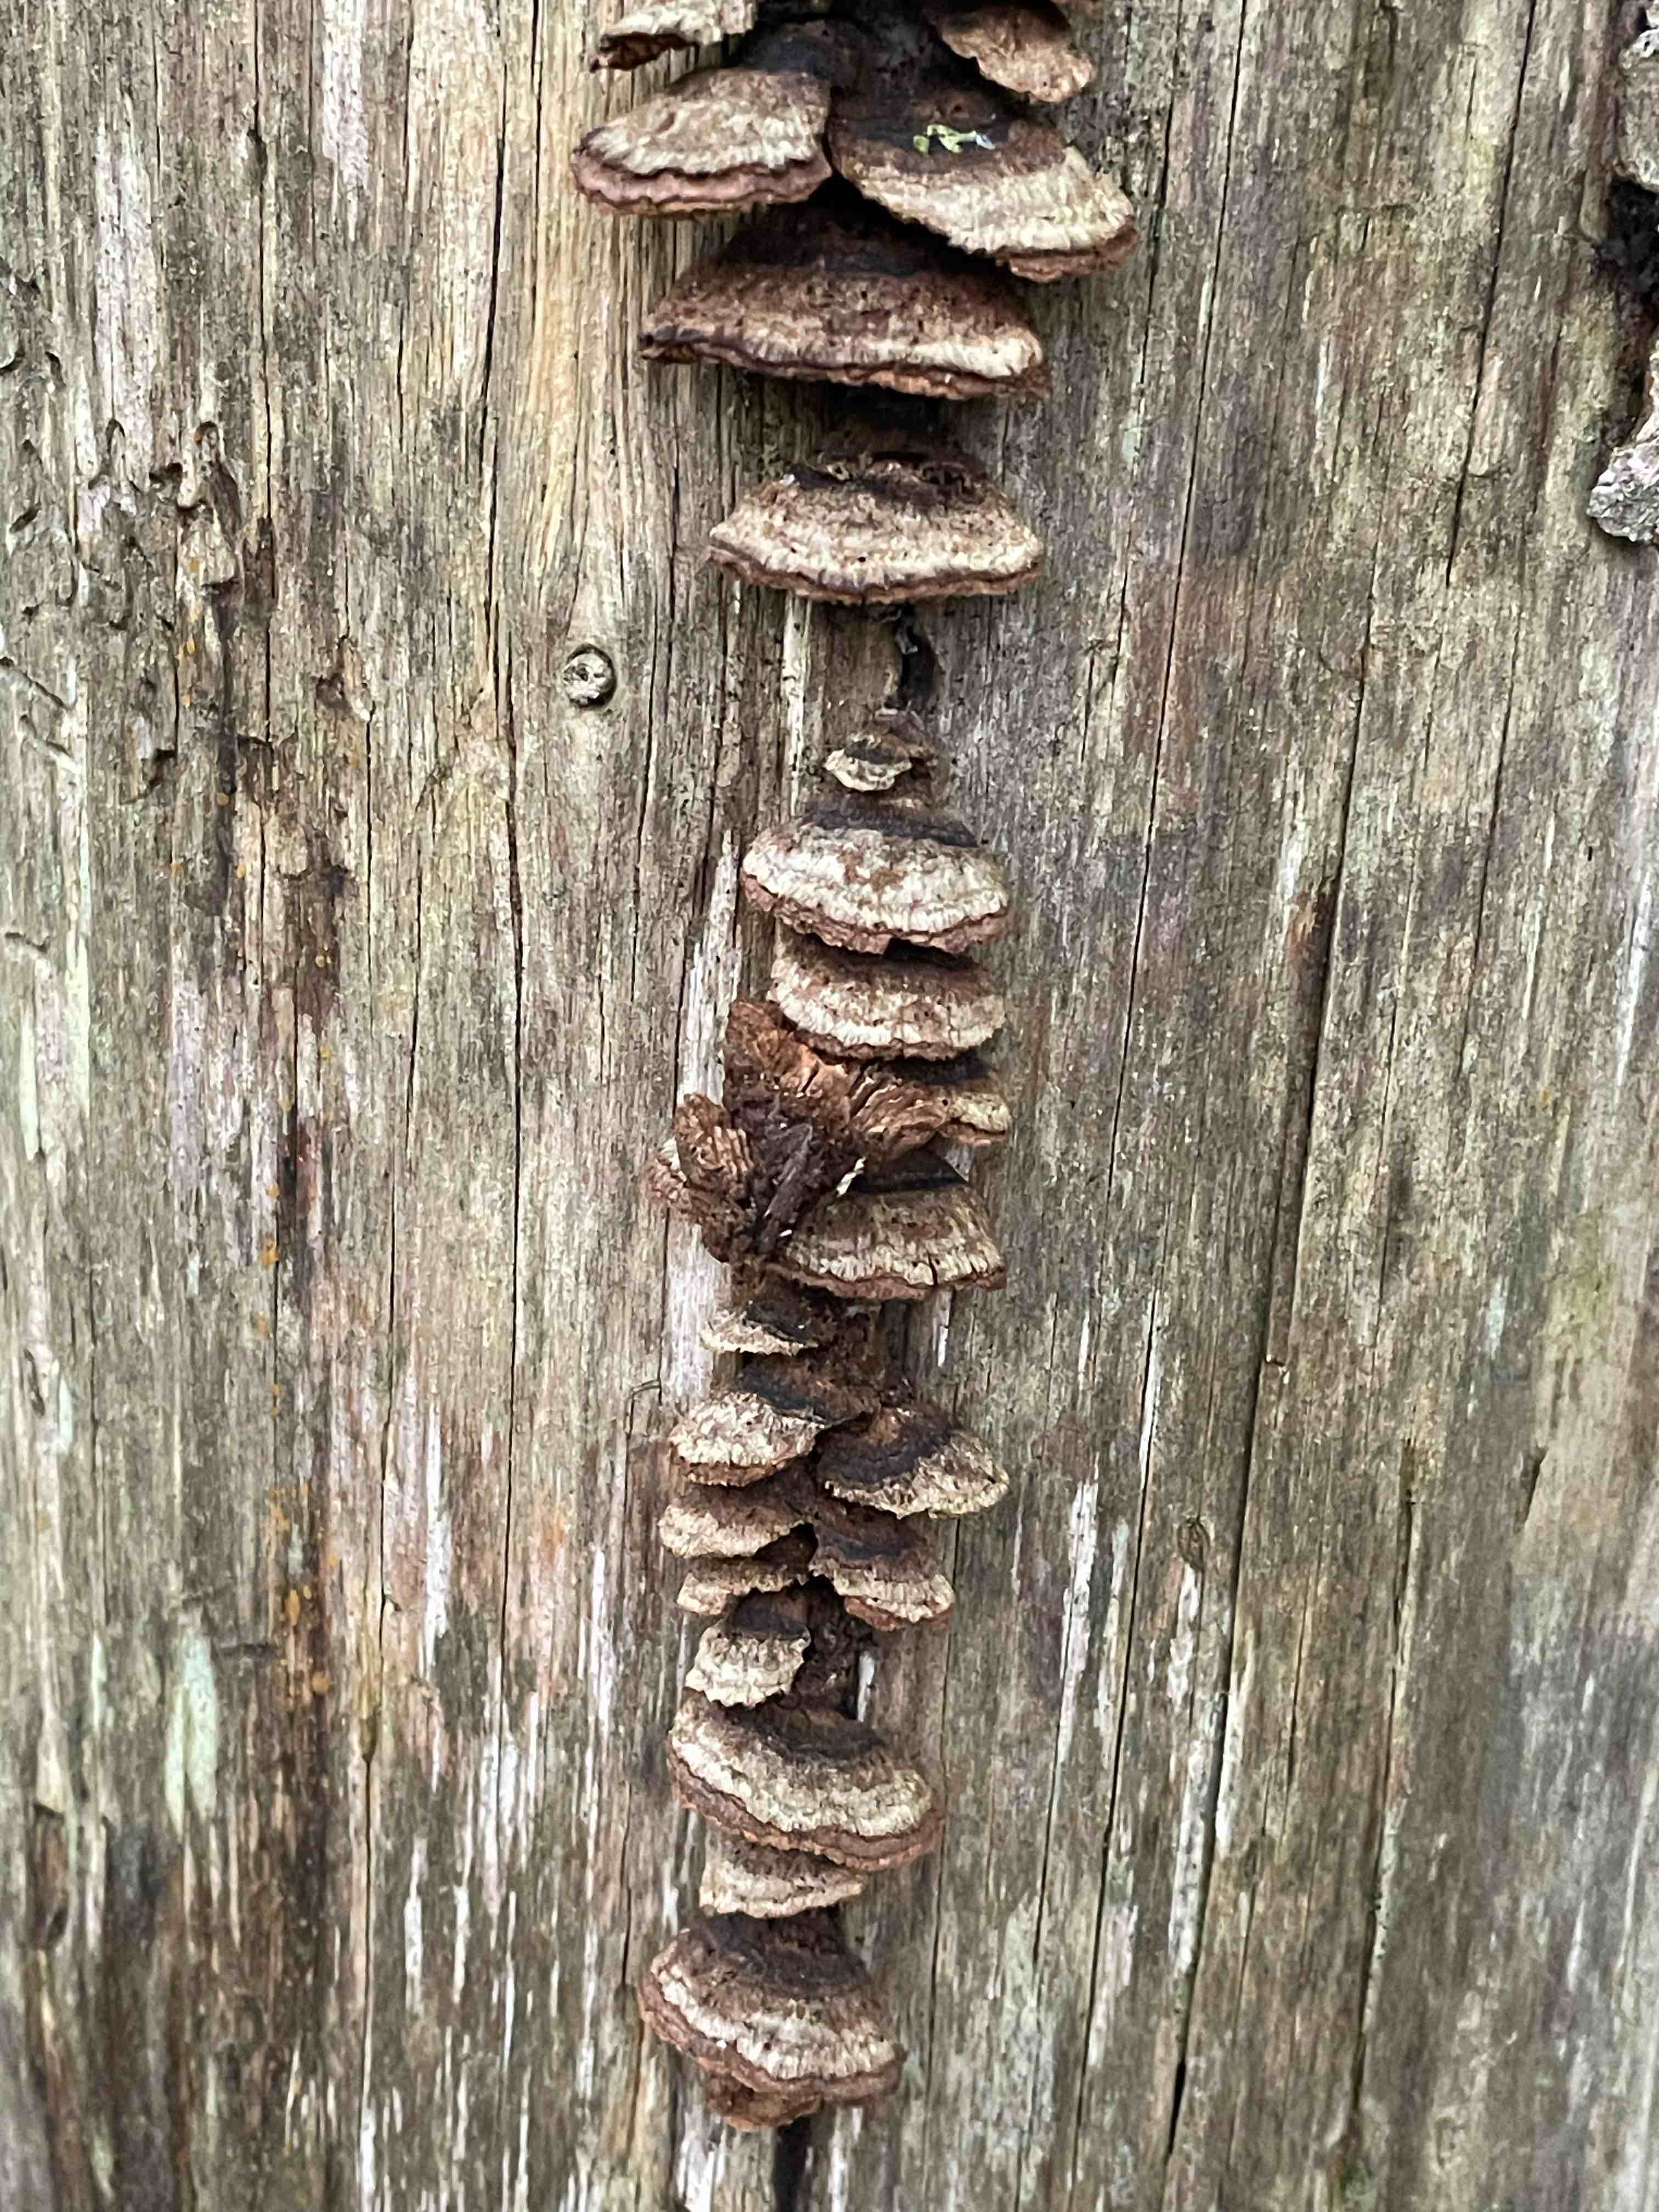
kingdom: Fungi
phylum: Basidiomycota
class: Agaricomycetes
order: Gloeophyllales
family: Gloeophyllaceae
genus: Gloeophyllum
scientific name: Gloeophyllum abietinum
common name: gran-korkhat
